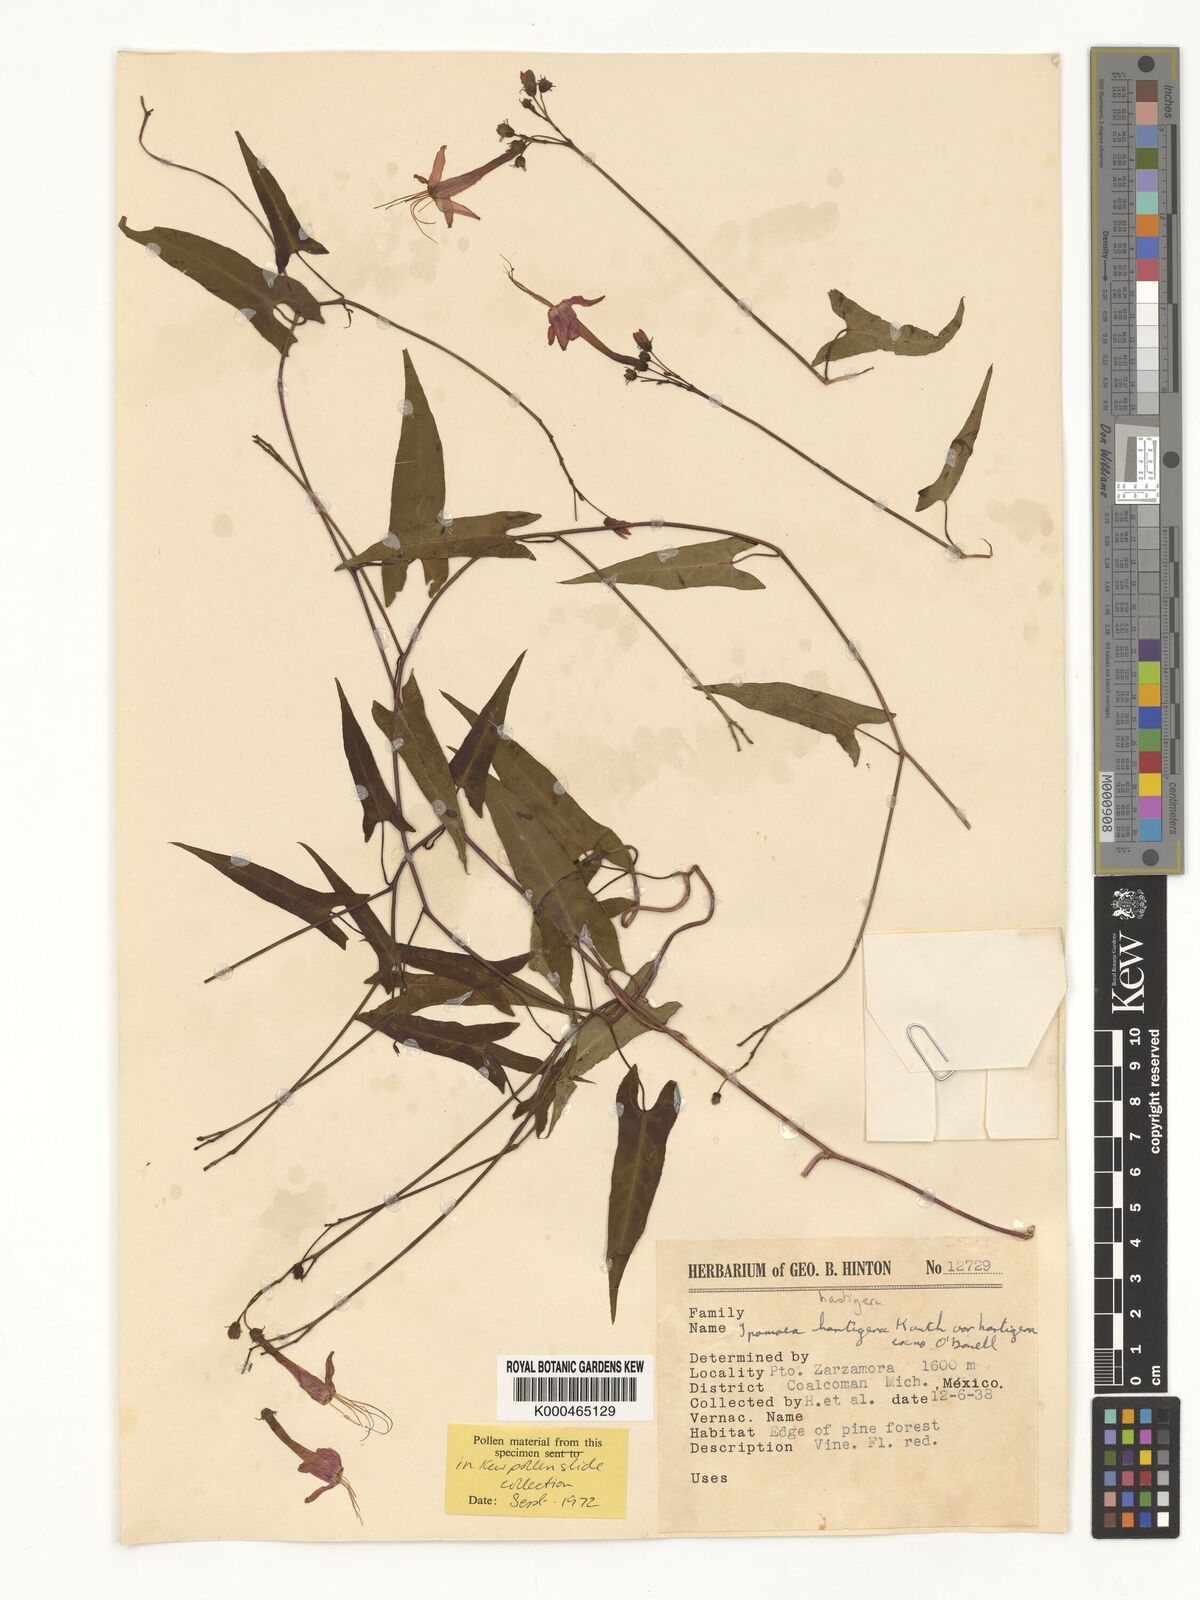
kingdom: Plantae
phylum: Tracheophyta
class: Magnoliopsida
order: Solanales
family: Convolvulaceae
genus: Ipomoea
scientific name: Ipomoea hastigera
